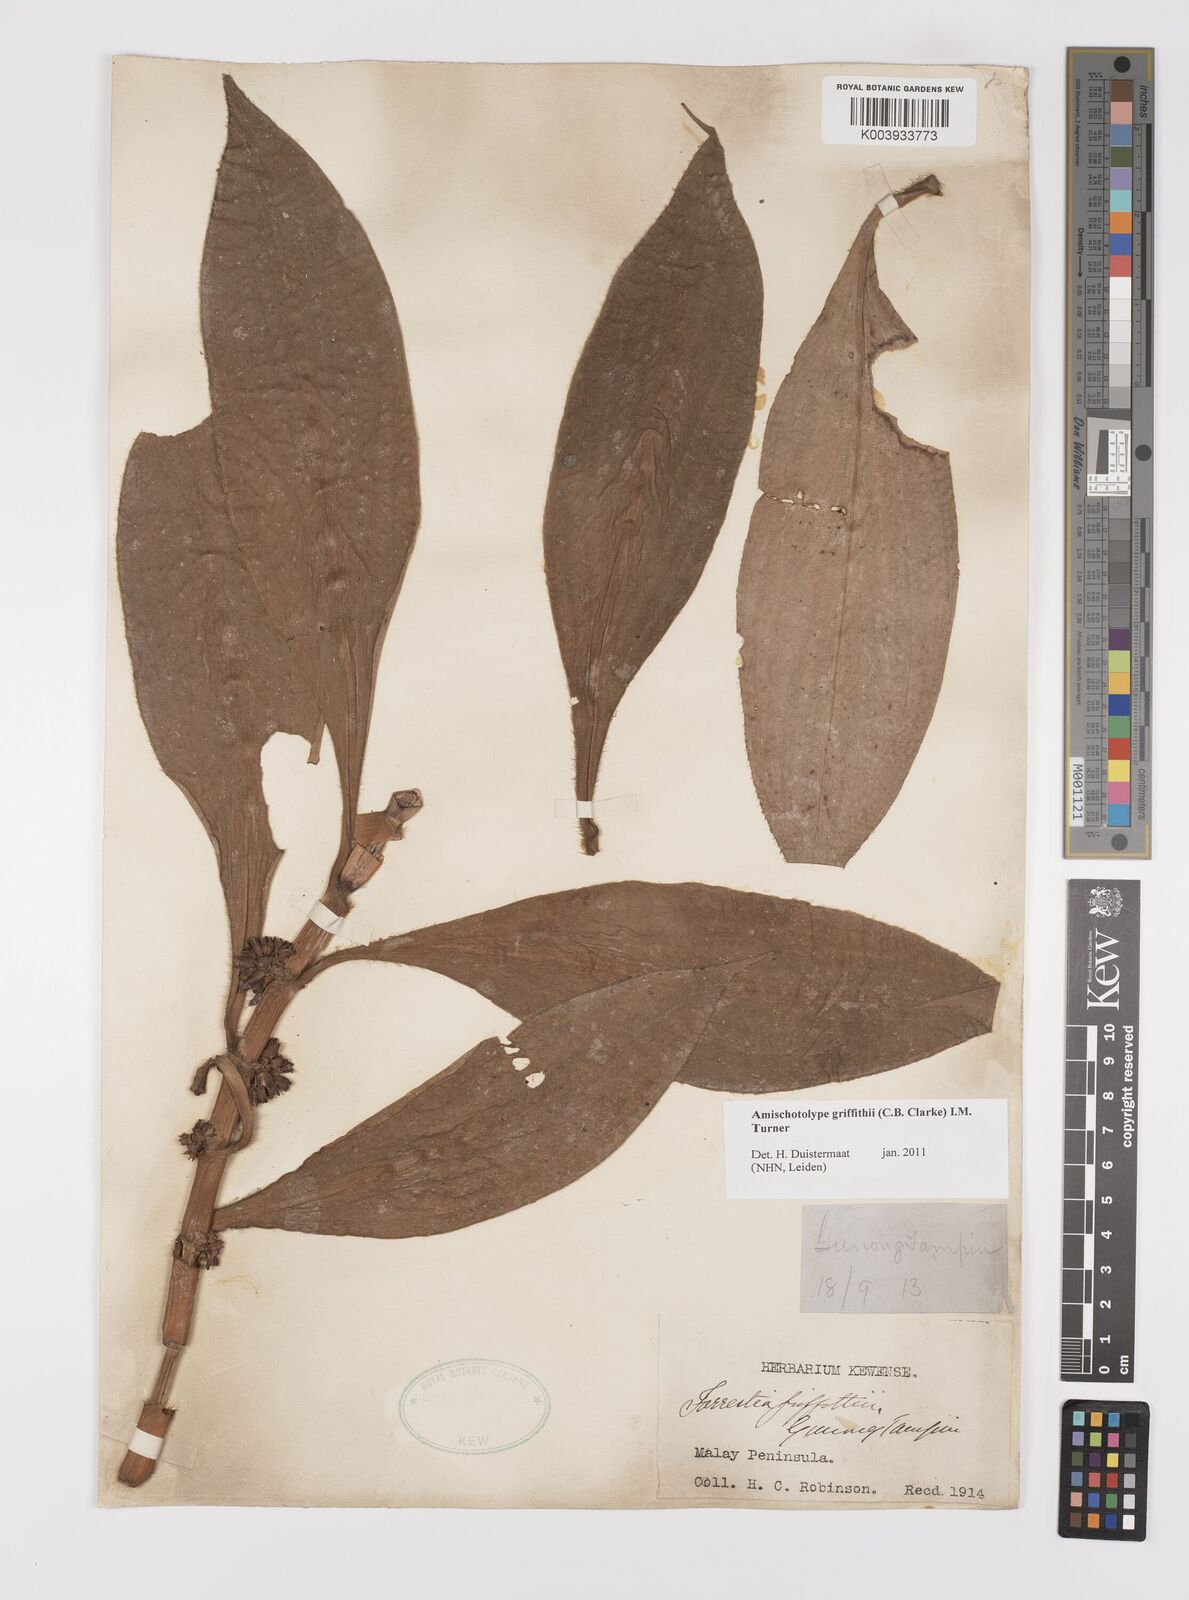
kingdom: Plantae
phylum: Tracheophyta
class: Liliopsida
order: Commelinales
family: Commelinaceae
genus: Amischotolype
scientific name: Amischotolype griffithii
